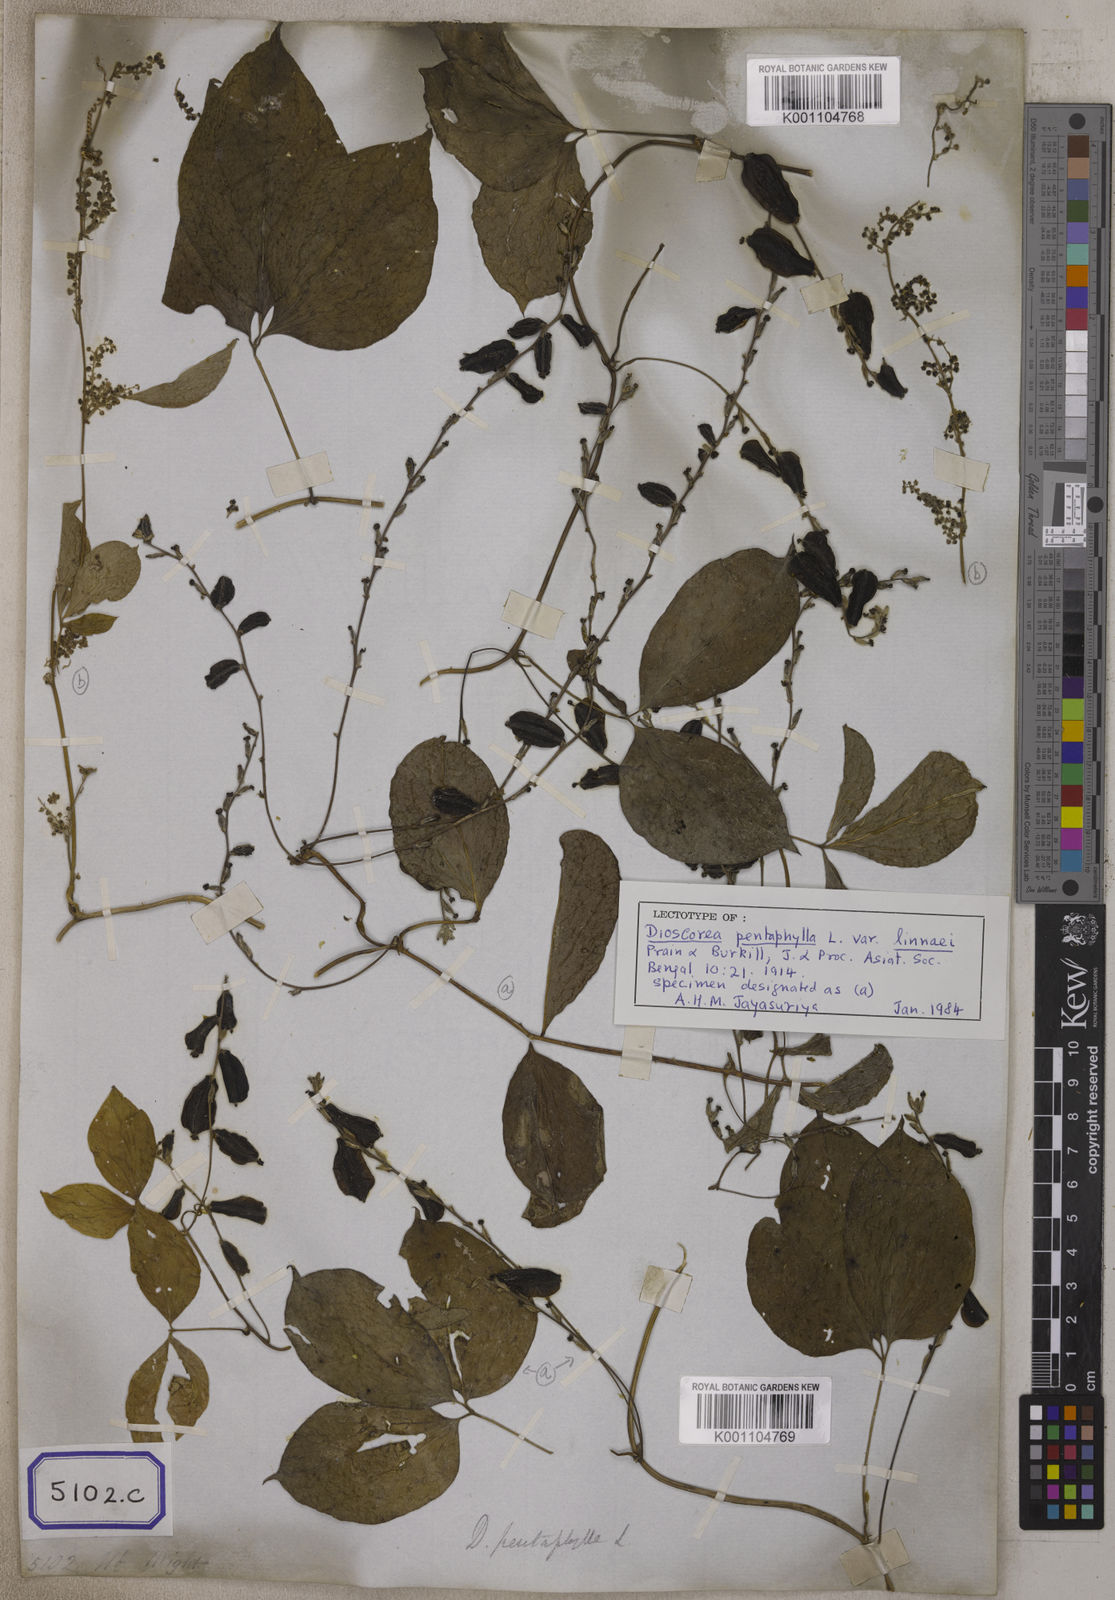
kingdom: Plantae
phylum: Tracheophyta
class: Liliopsida
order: Dioscoreales
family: Dioscoreaceae
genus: Dioscorea
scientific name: Dioscorea pentaphylla
